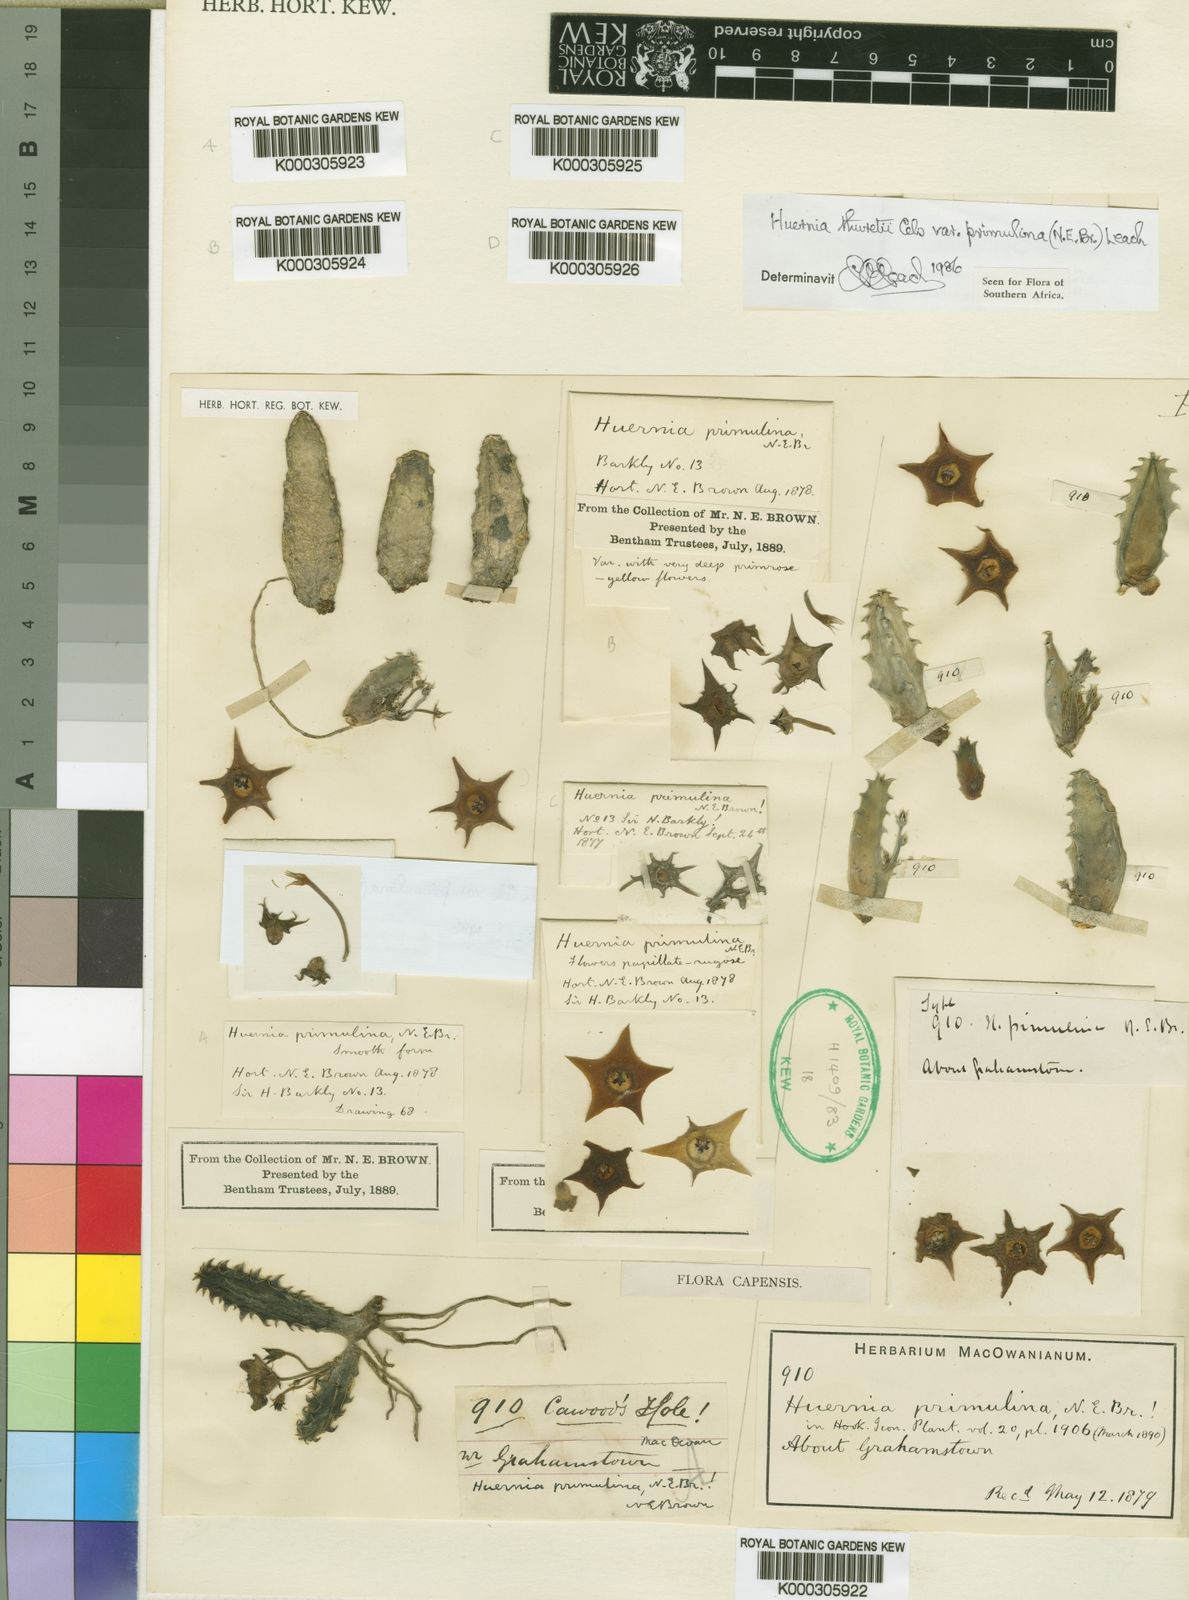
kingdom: Plantae
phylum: Tracheophyta
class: Magnoliopsida
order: Gentianales
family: Apocynaceae
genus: Ceropegia
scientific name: Ceropegia thuretii
